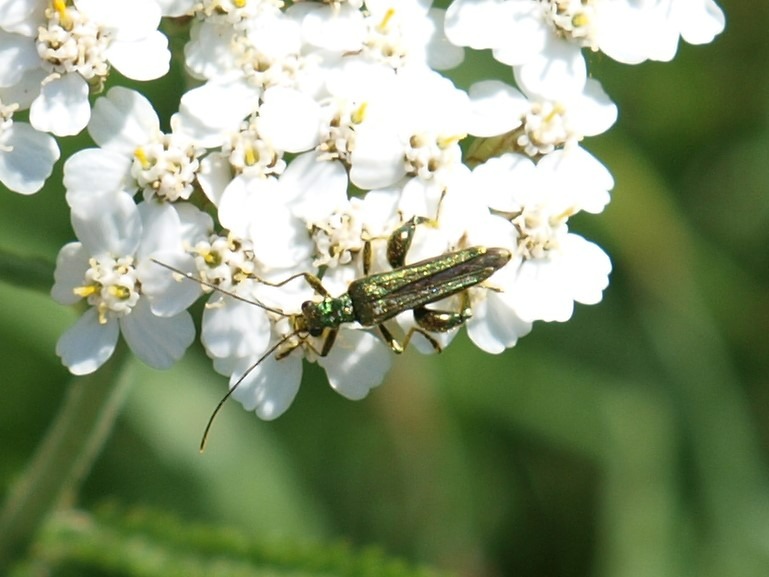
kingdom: Animalia
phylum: Arthropoda
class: Insecta
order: Coleoptera
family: Oedemeridae
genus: Oedemera
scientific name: Oedemera nobilis
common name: Tyklårssolbille
